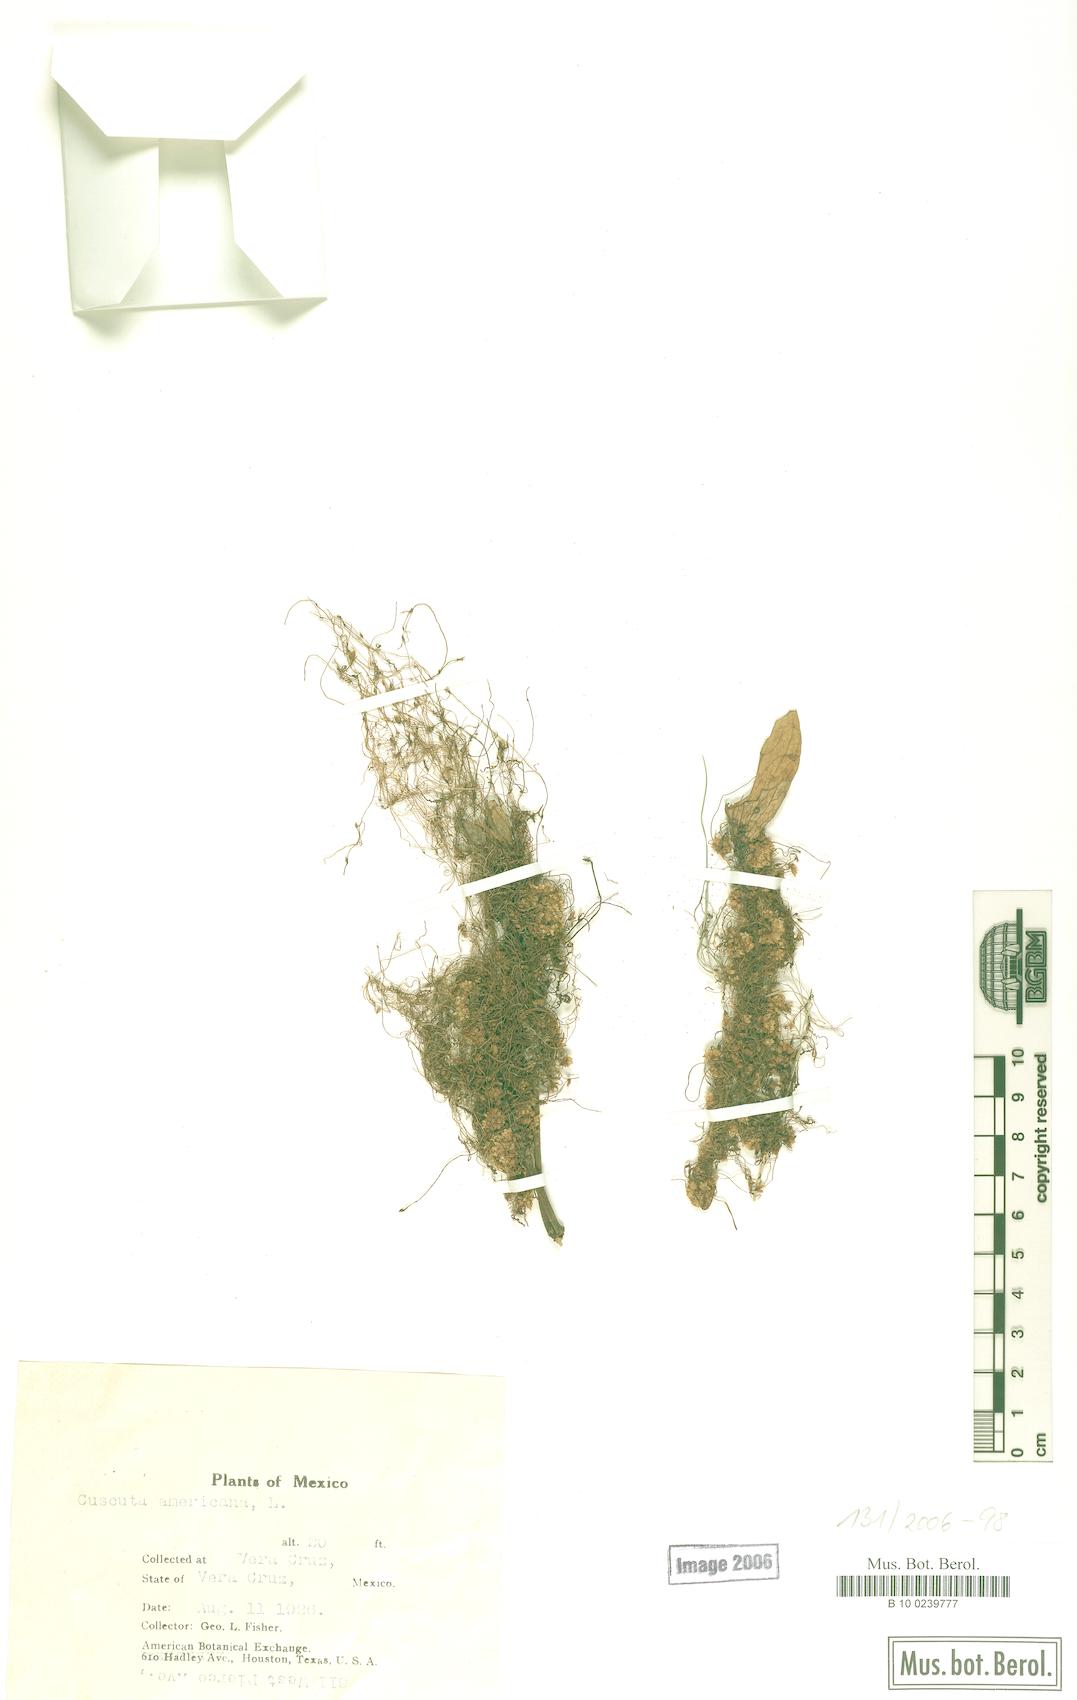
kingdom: Plantae
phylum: Tracheophyta
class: Magnoliopsida
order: Solanales
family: Convolvulaceae
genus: Cuscuta
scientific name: Cuscuta boldinghii
